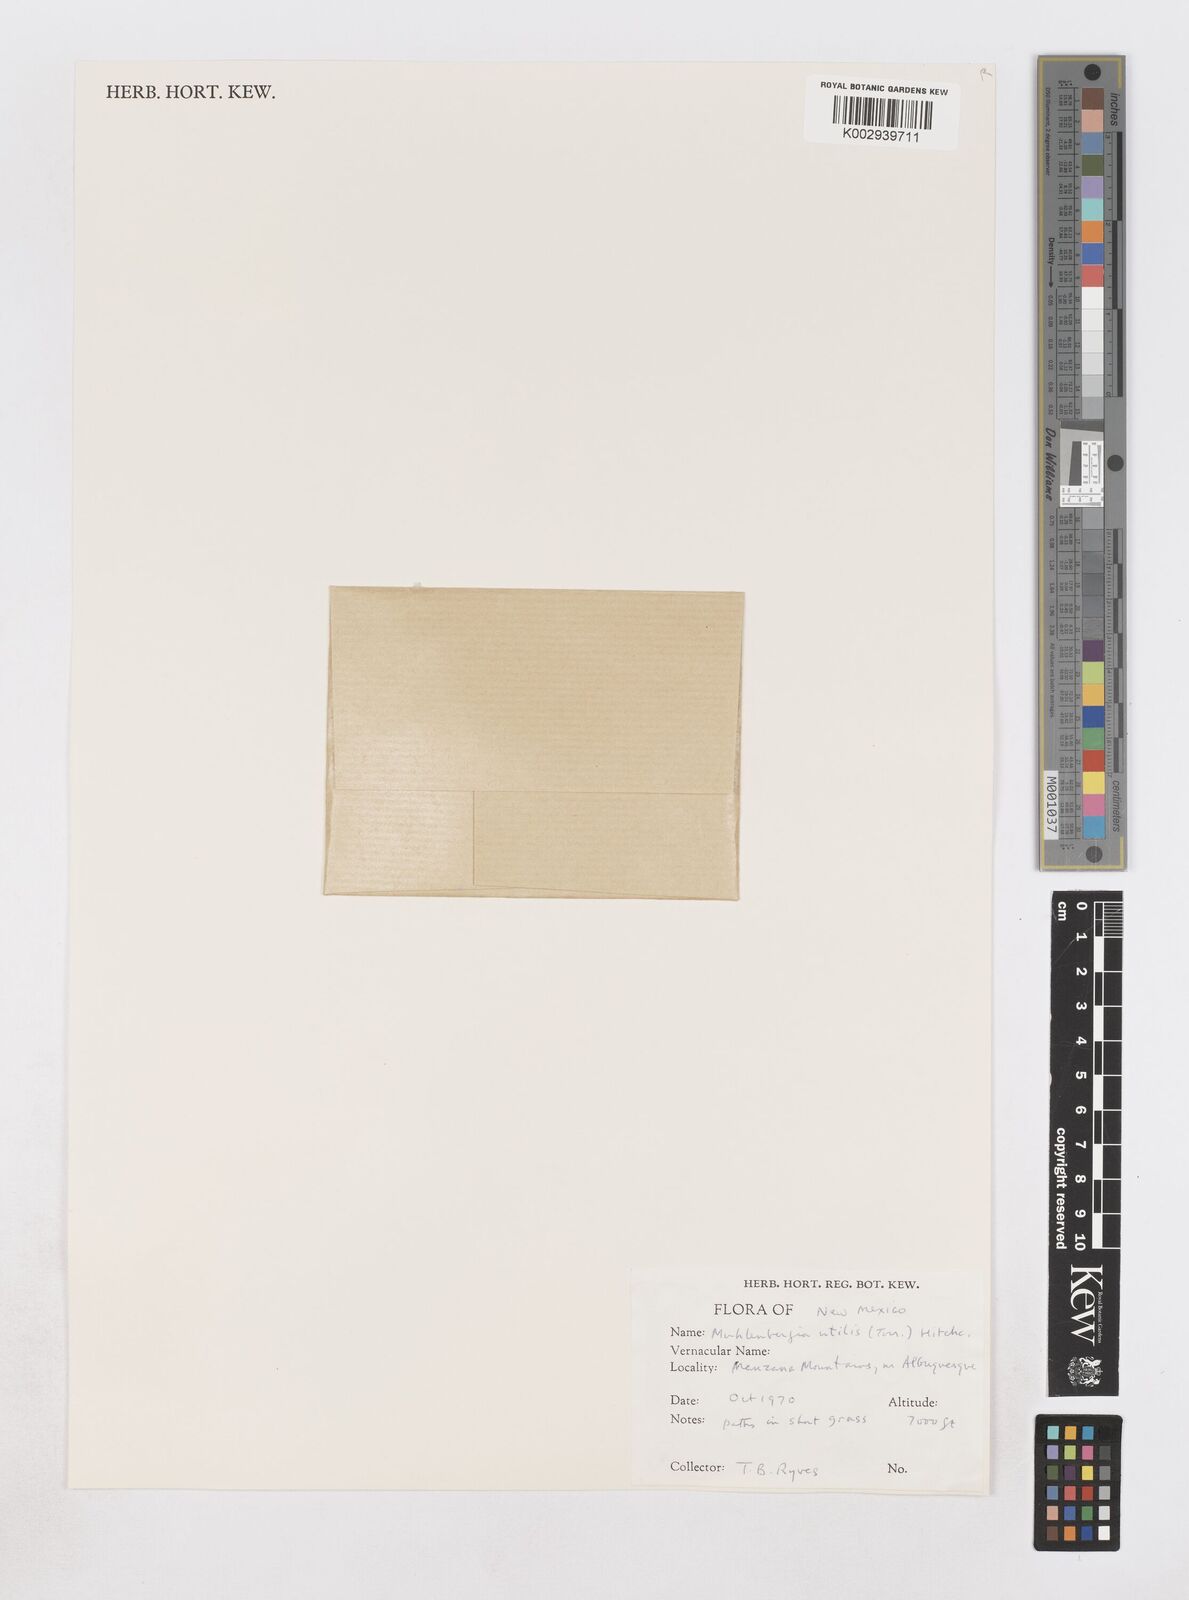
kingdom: Plantae
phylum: Tracheophyta
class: Liliopsida
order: Poales
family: Poaceae
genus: Muhlenbergia
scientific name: Muhlenbergia utilis
